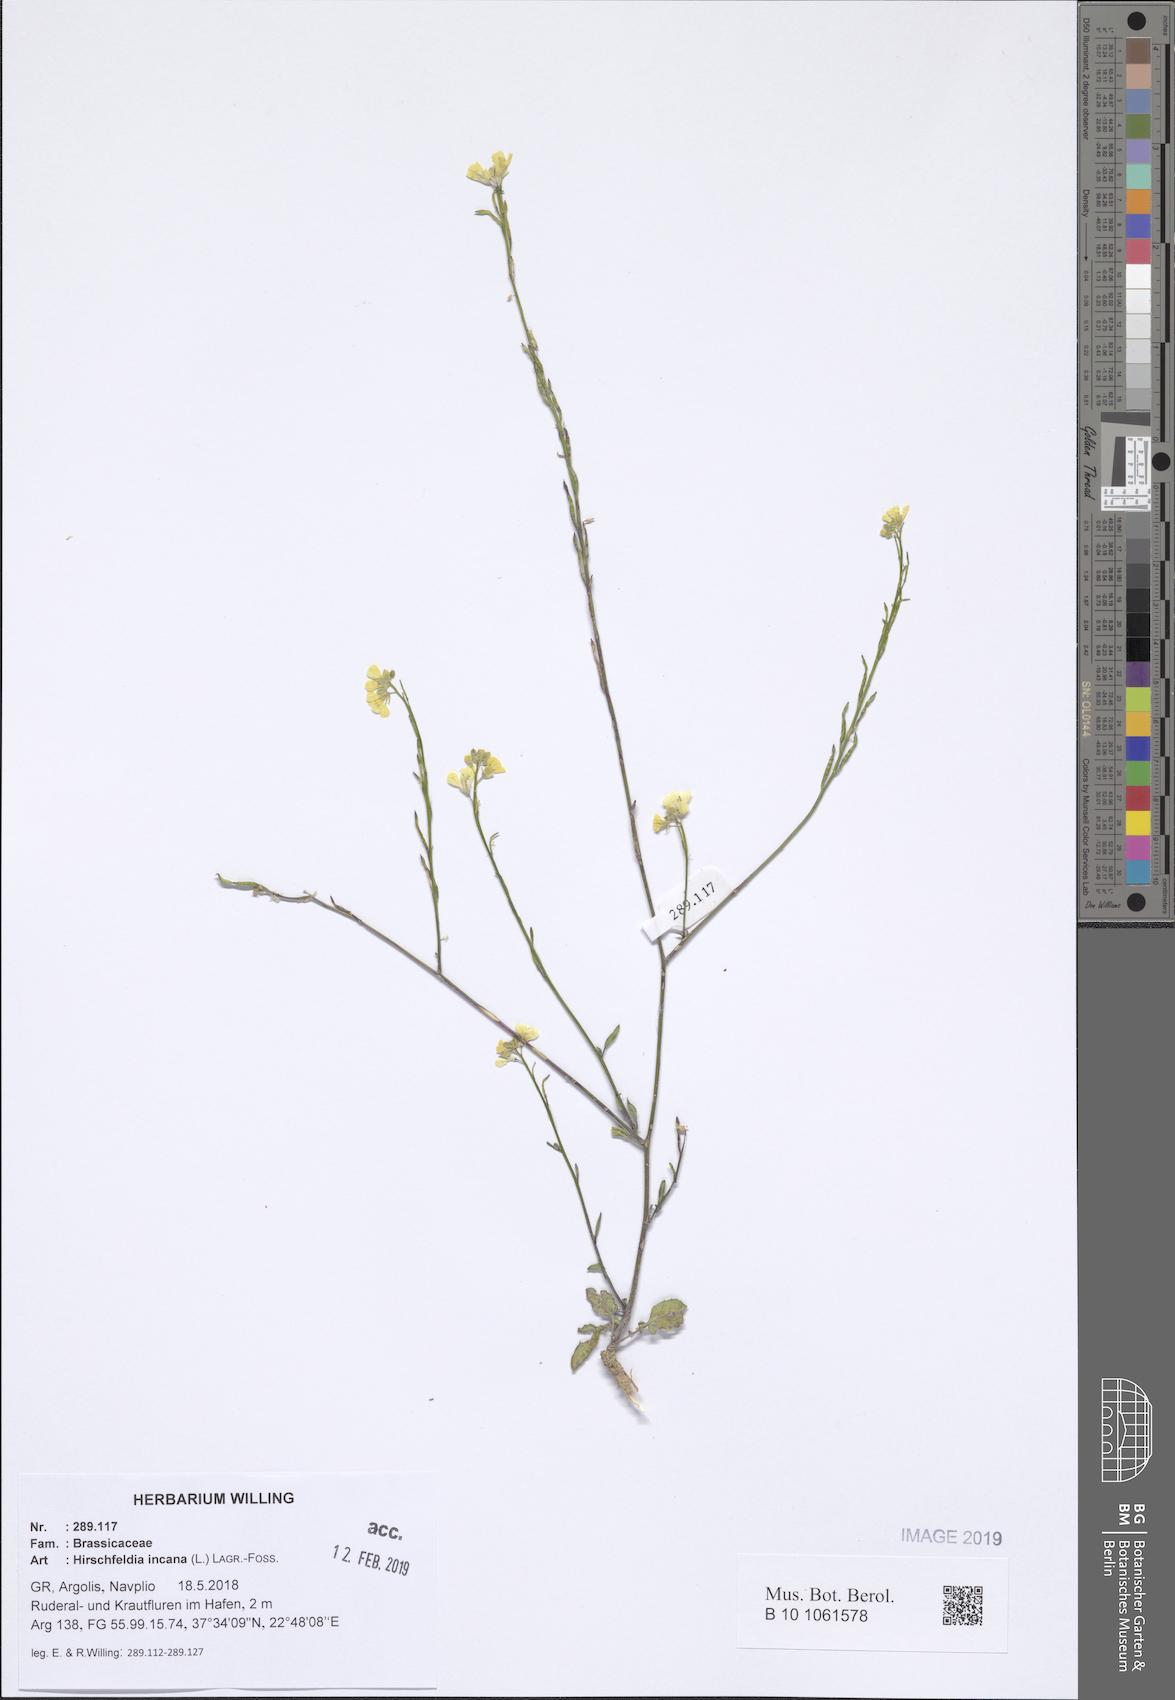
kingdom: Plantae
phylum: Tracheophyta
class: Magnoliopsida
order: Brassicales
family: Brassicaceae
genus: Hirschfeldia
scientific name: Hirschfeldia incana
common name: Hoary mustard
